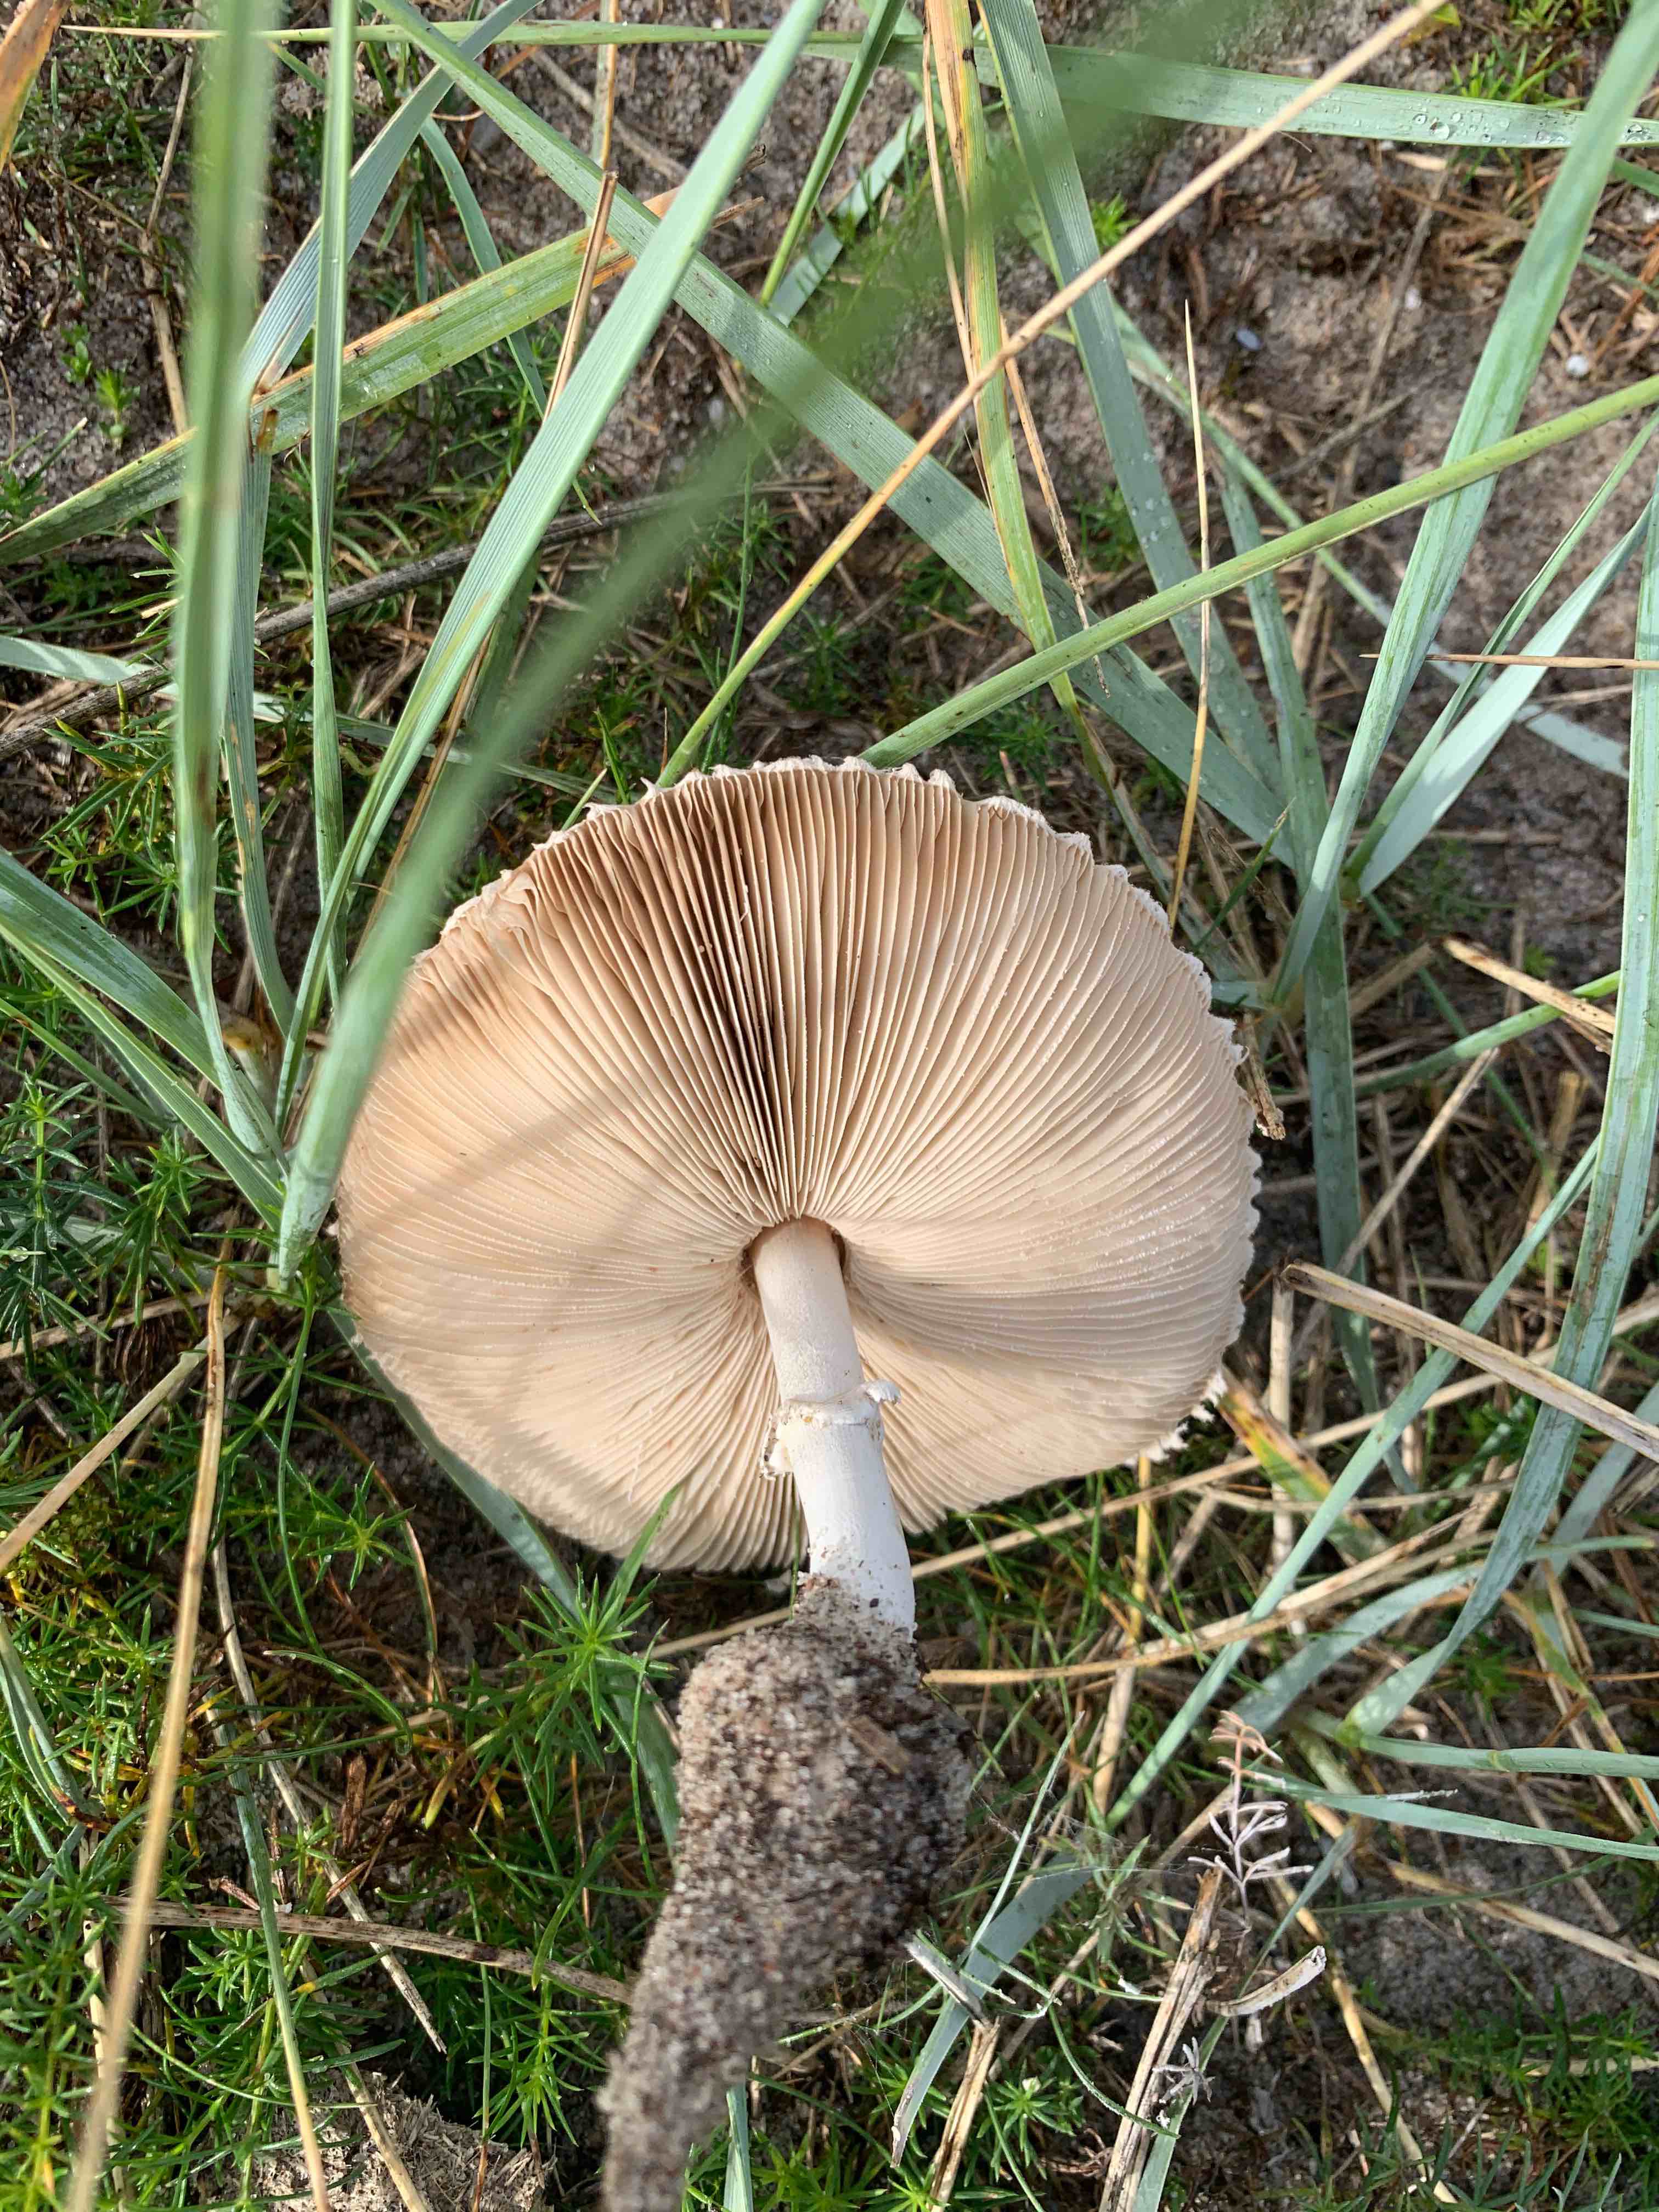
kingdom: Fungi
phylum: Basidiomycota
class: Agaricomycetes
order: Agaricales
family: Agaricaceae
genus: Macrolepiota
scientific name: Macrolepiota excoriata
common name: mark-kæmpeparasolhat
